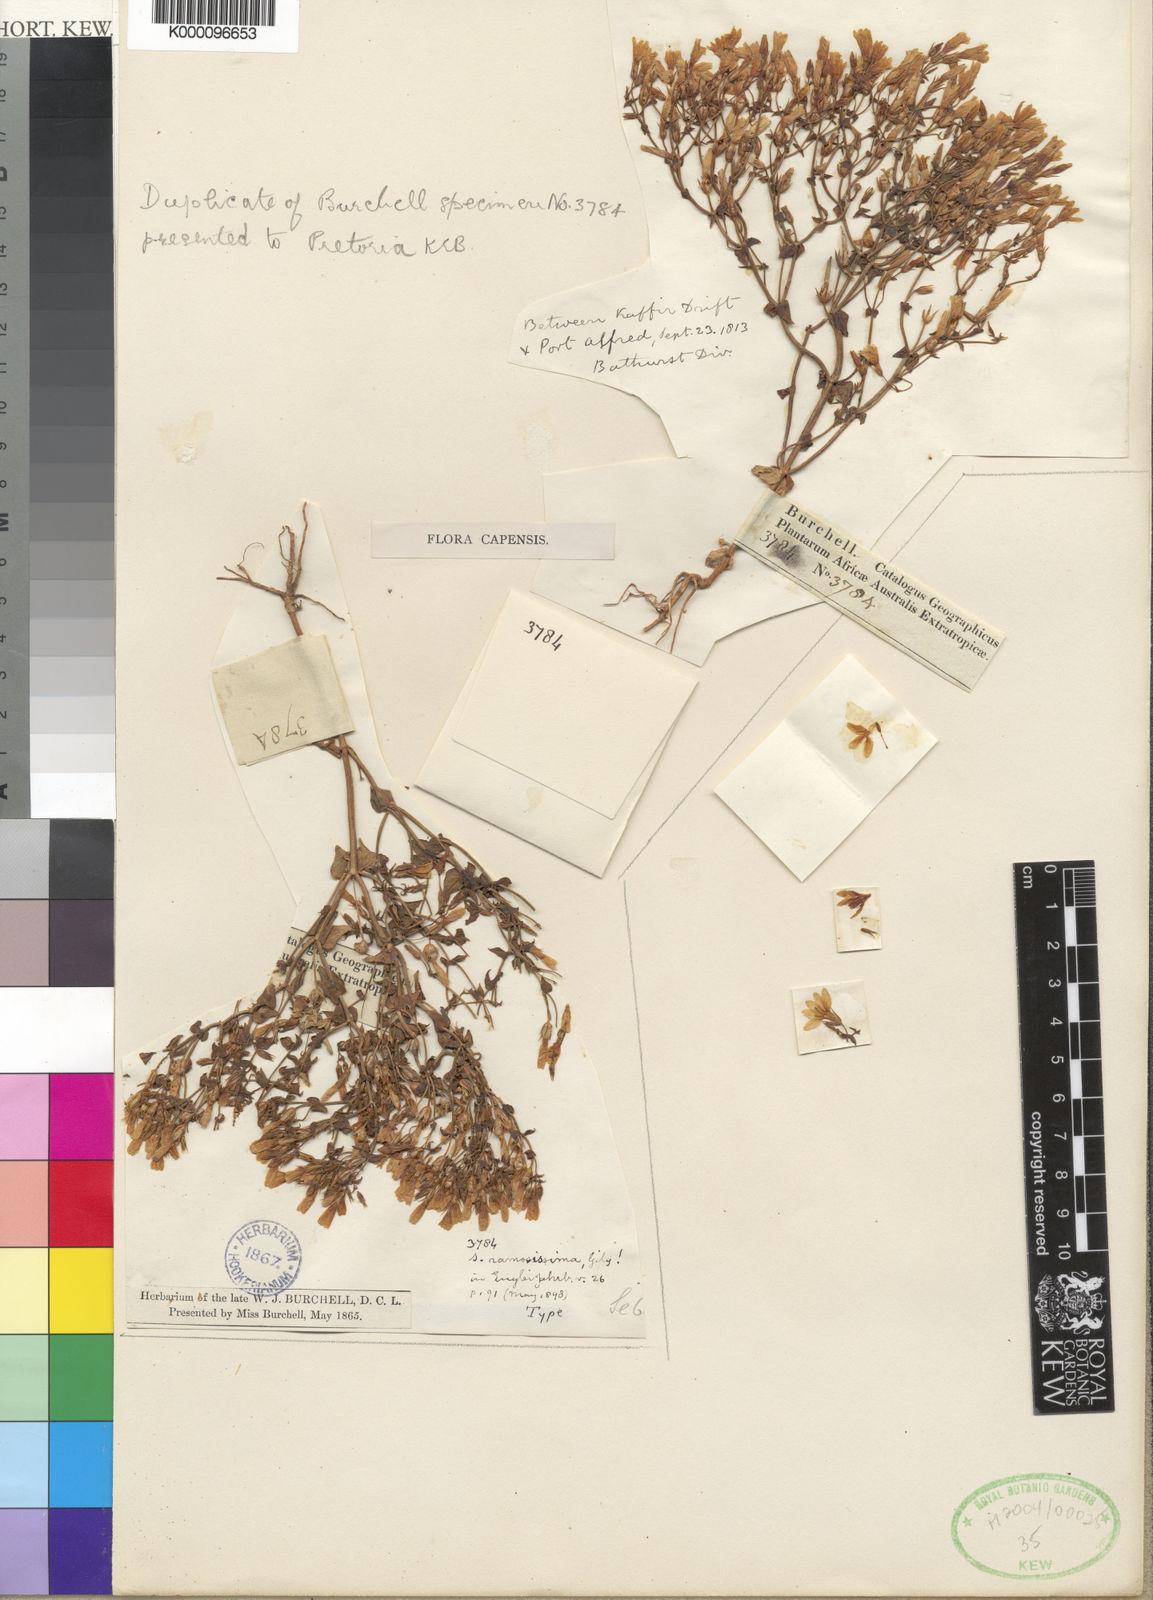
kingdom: Plantae
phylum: Tracheophyta
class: Magnoliopsida
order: Gentianales
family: Gentianaceae
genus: Sebaea
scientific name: Sebaea ramosissima
